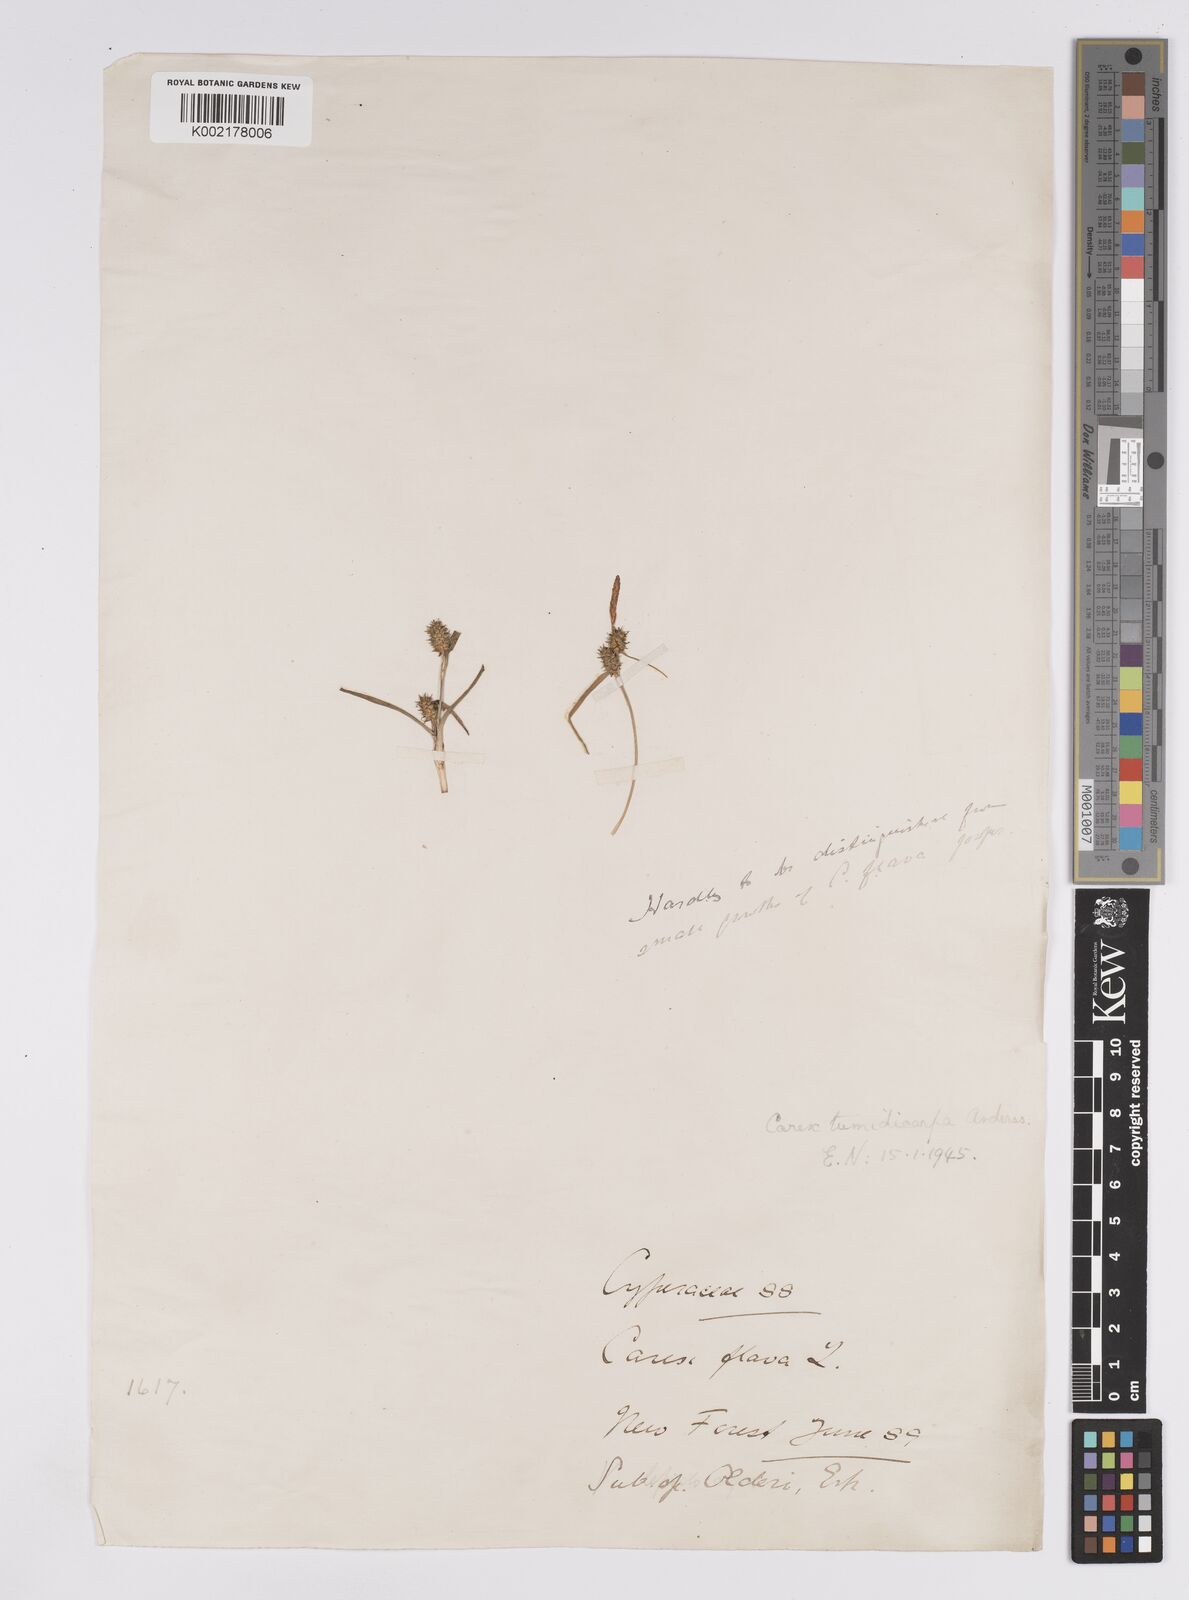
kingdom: Plantae
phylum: Tracheophyta
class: Liliopsida
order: Poales
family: Cyperaceae
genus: Carex
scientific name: Carex demissa
